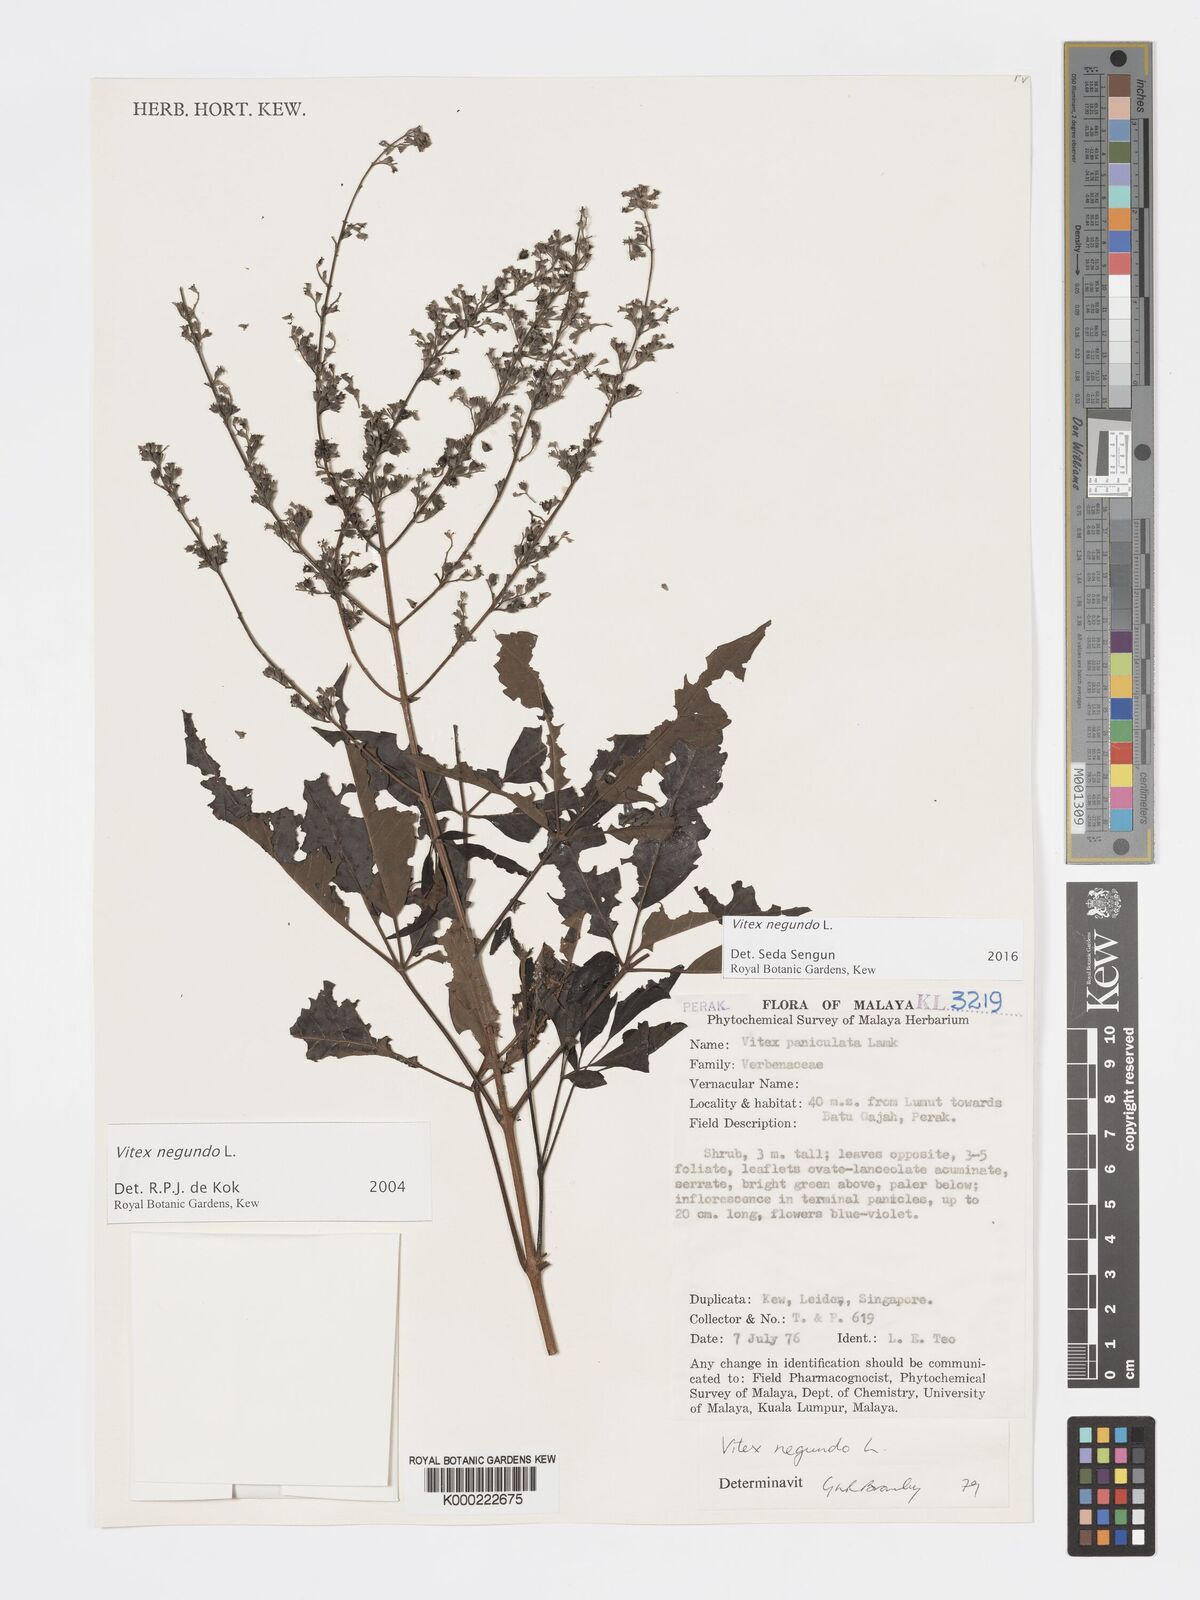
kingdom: Plantae
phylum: Tracheophyta
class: Magnoliopsida
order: Lamiales
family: Lamiaceae
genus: Vitex
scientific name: Vitex negundo
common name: Chinese chastetree
